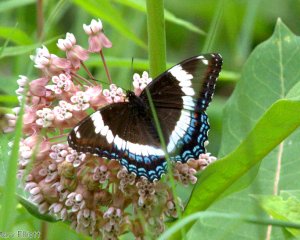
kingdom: Animalia
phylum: Arthropoda
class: Insecta
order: Lepidoptera
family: Nymphalidae
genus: Limenitis
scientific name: Limenitis arthemis
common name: Red-spotted Admiral
